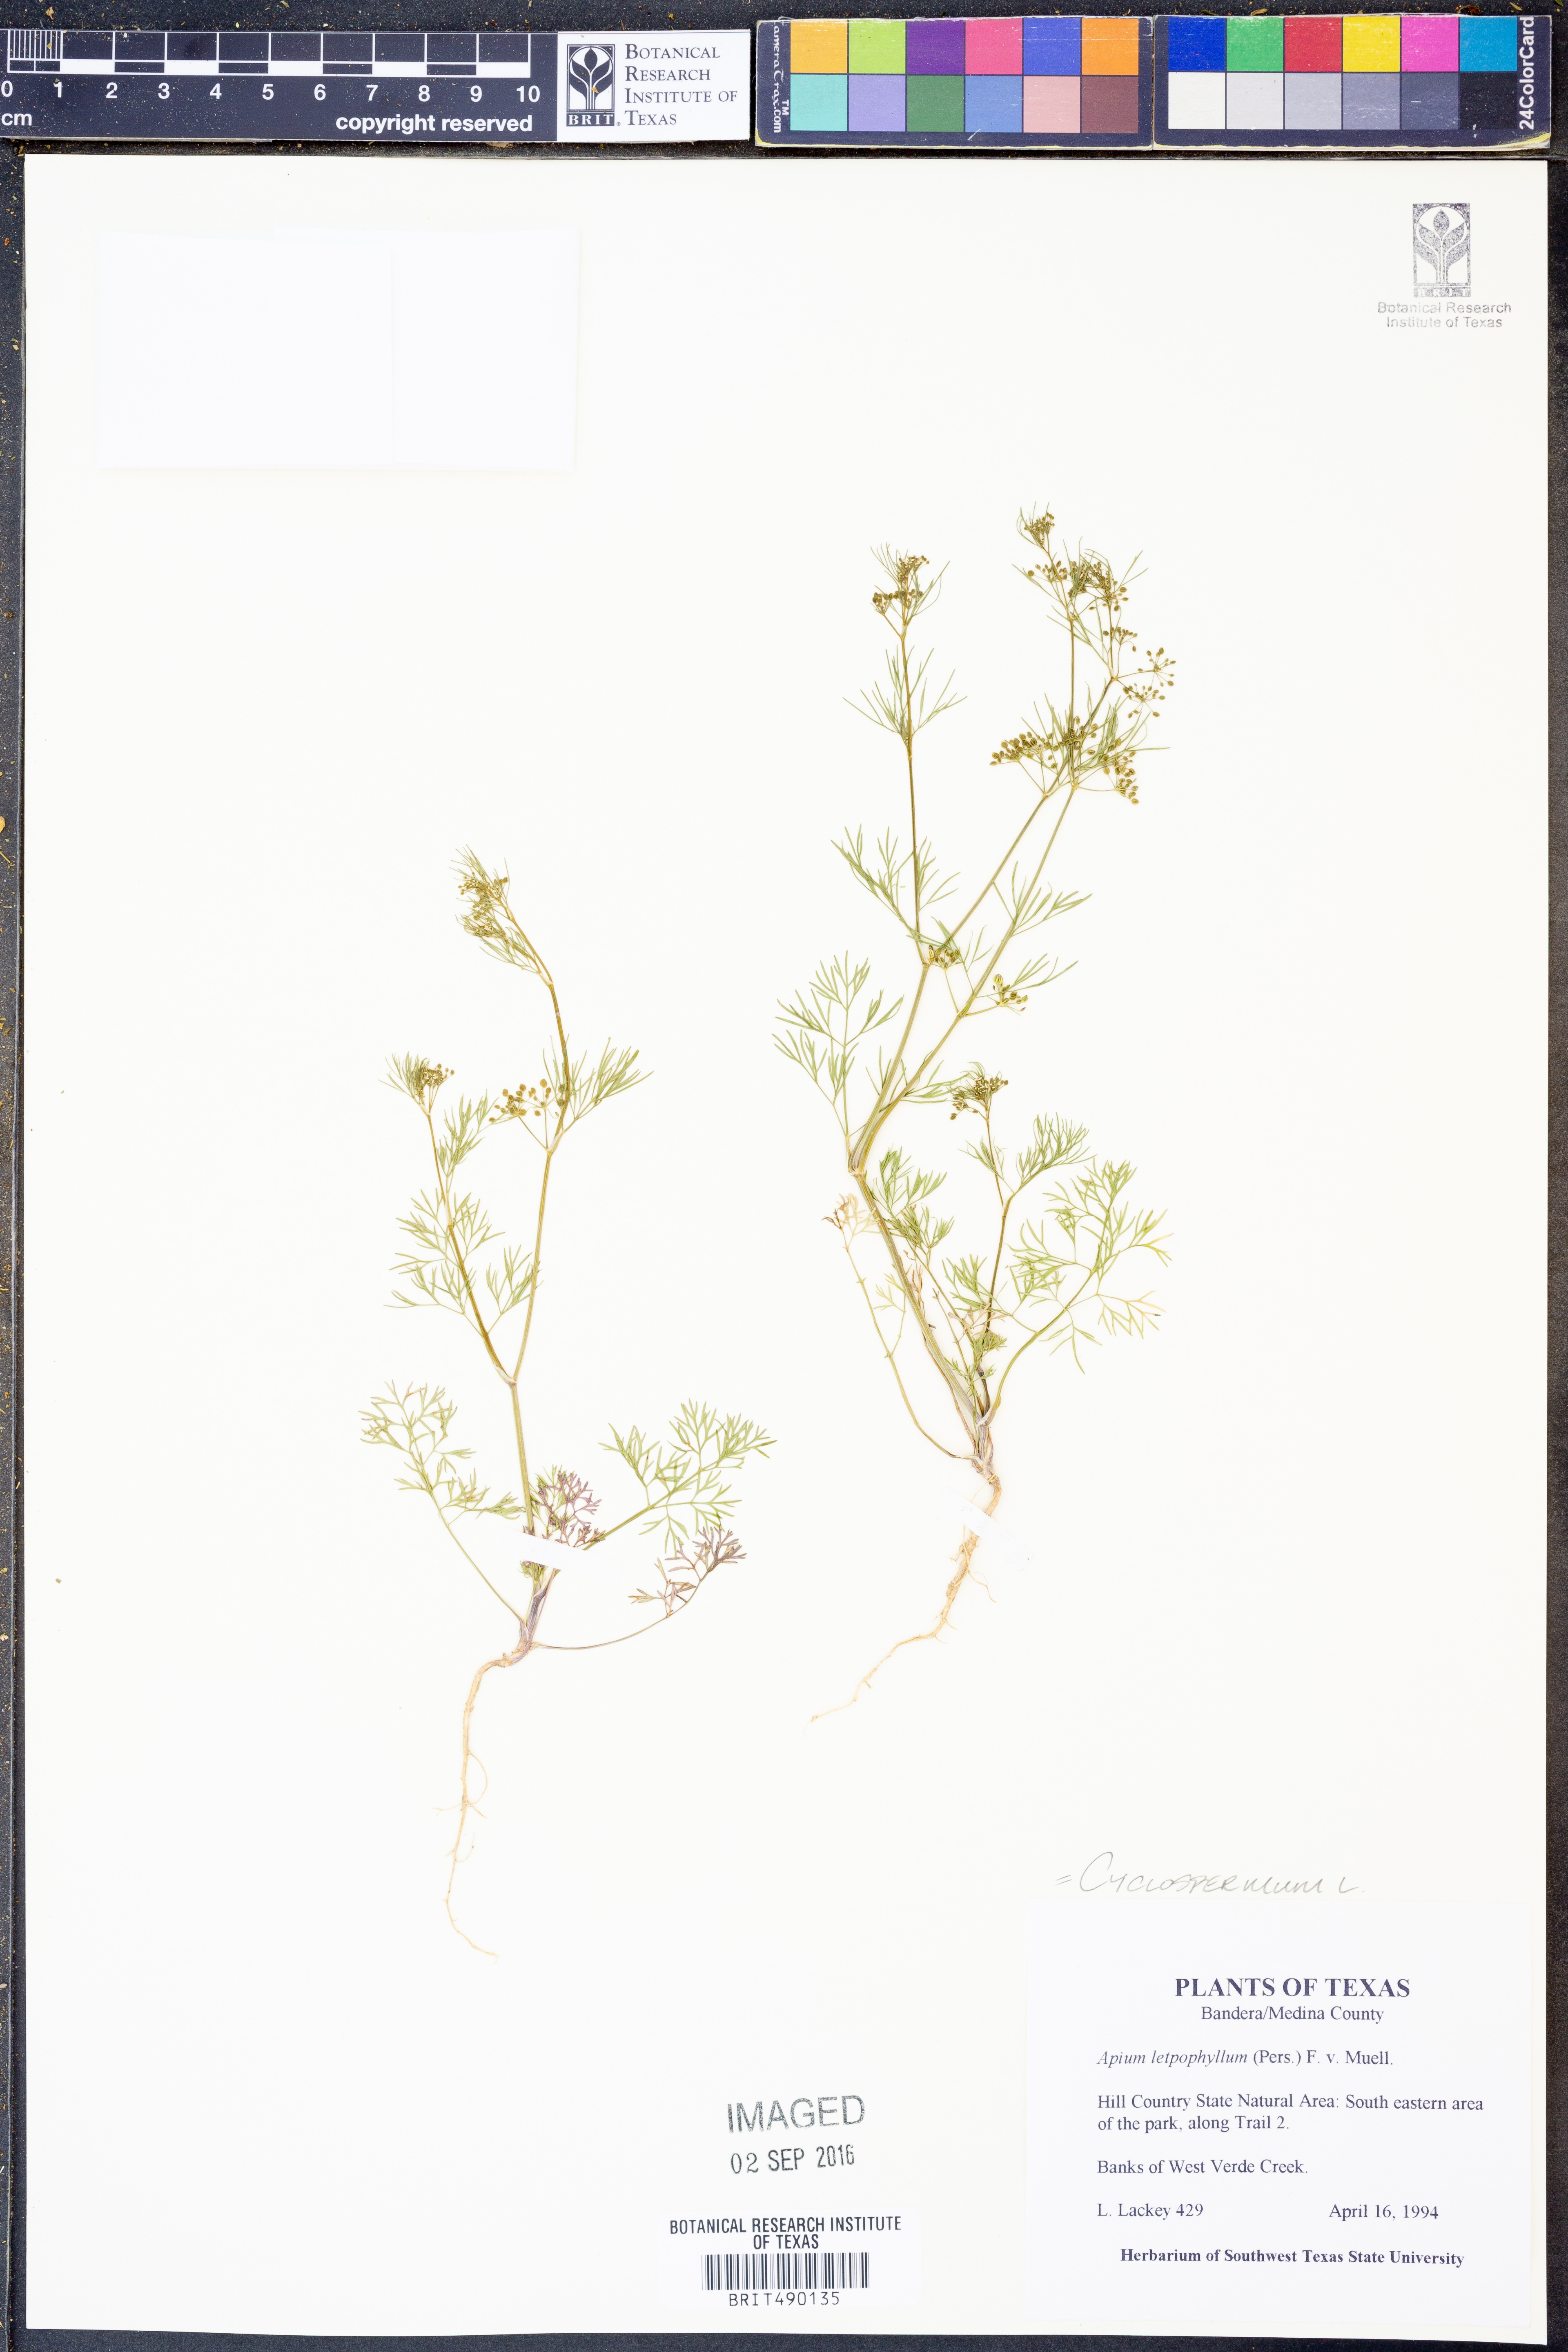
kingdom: Plantae
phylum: Tracheophyta
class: Magnoliopsida
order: Apiales
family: Apiaceae
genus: Cyclospermum
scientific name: Cyclospermum leptophyllum
